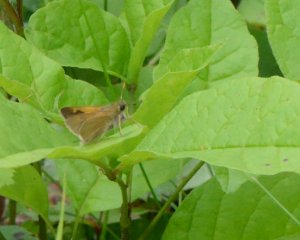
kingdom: Animalia
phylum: Arthropoda
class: Insecta
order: Lepidoptera
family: Hesperiidae
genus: Polites
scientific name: Polites themistocles
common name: Tawny-edged Skipper
